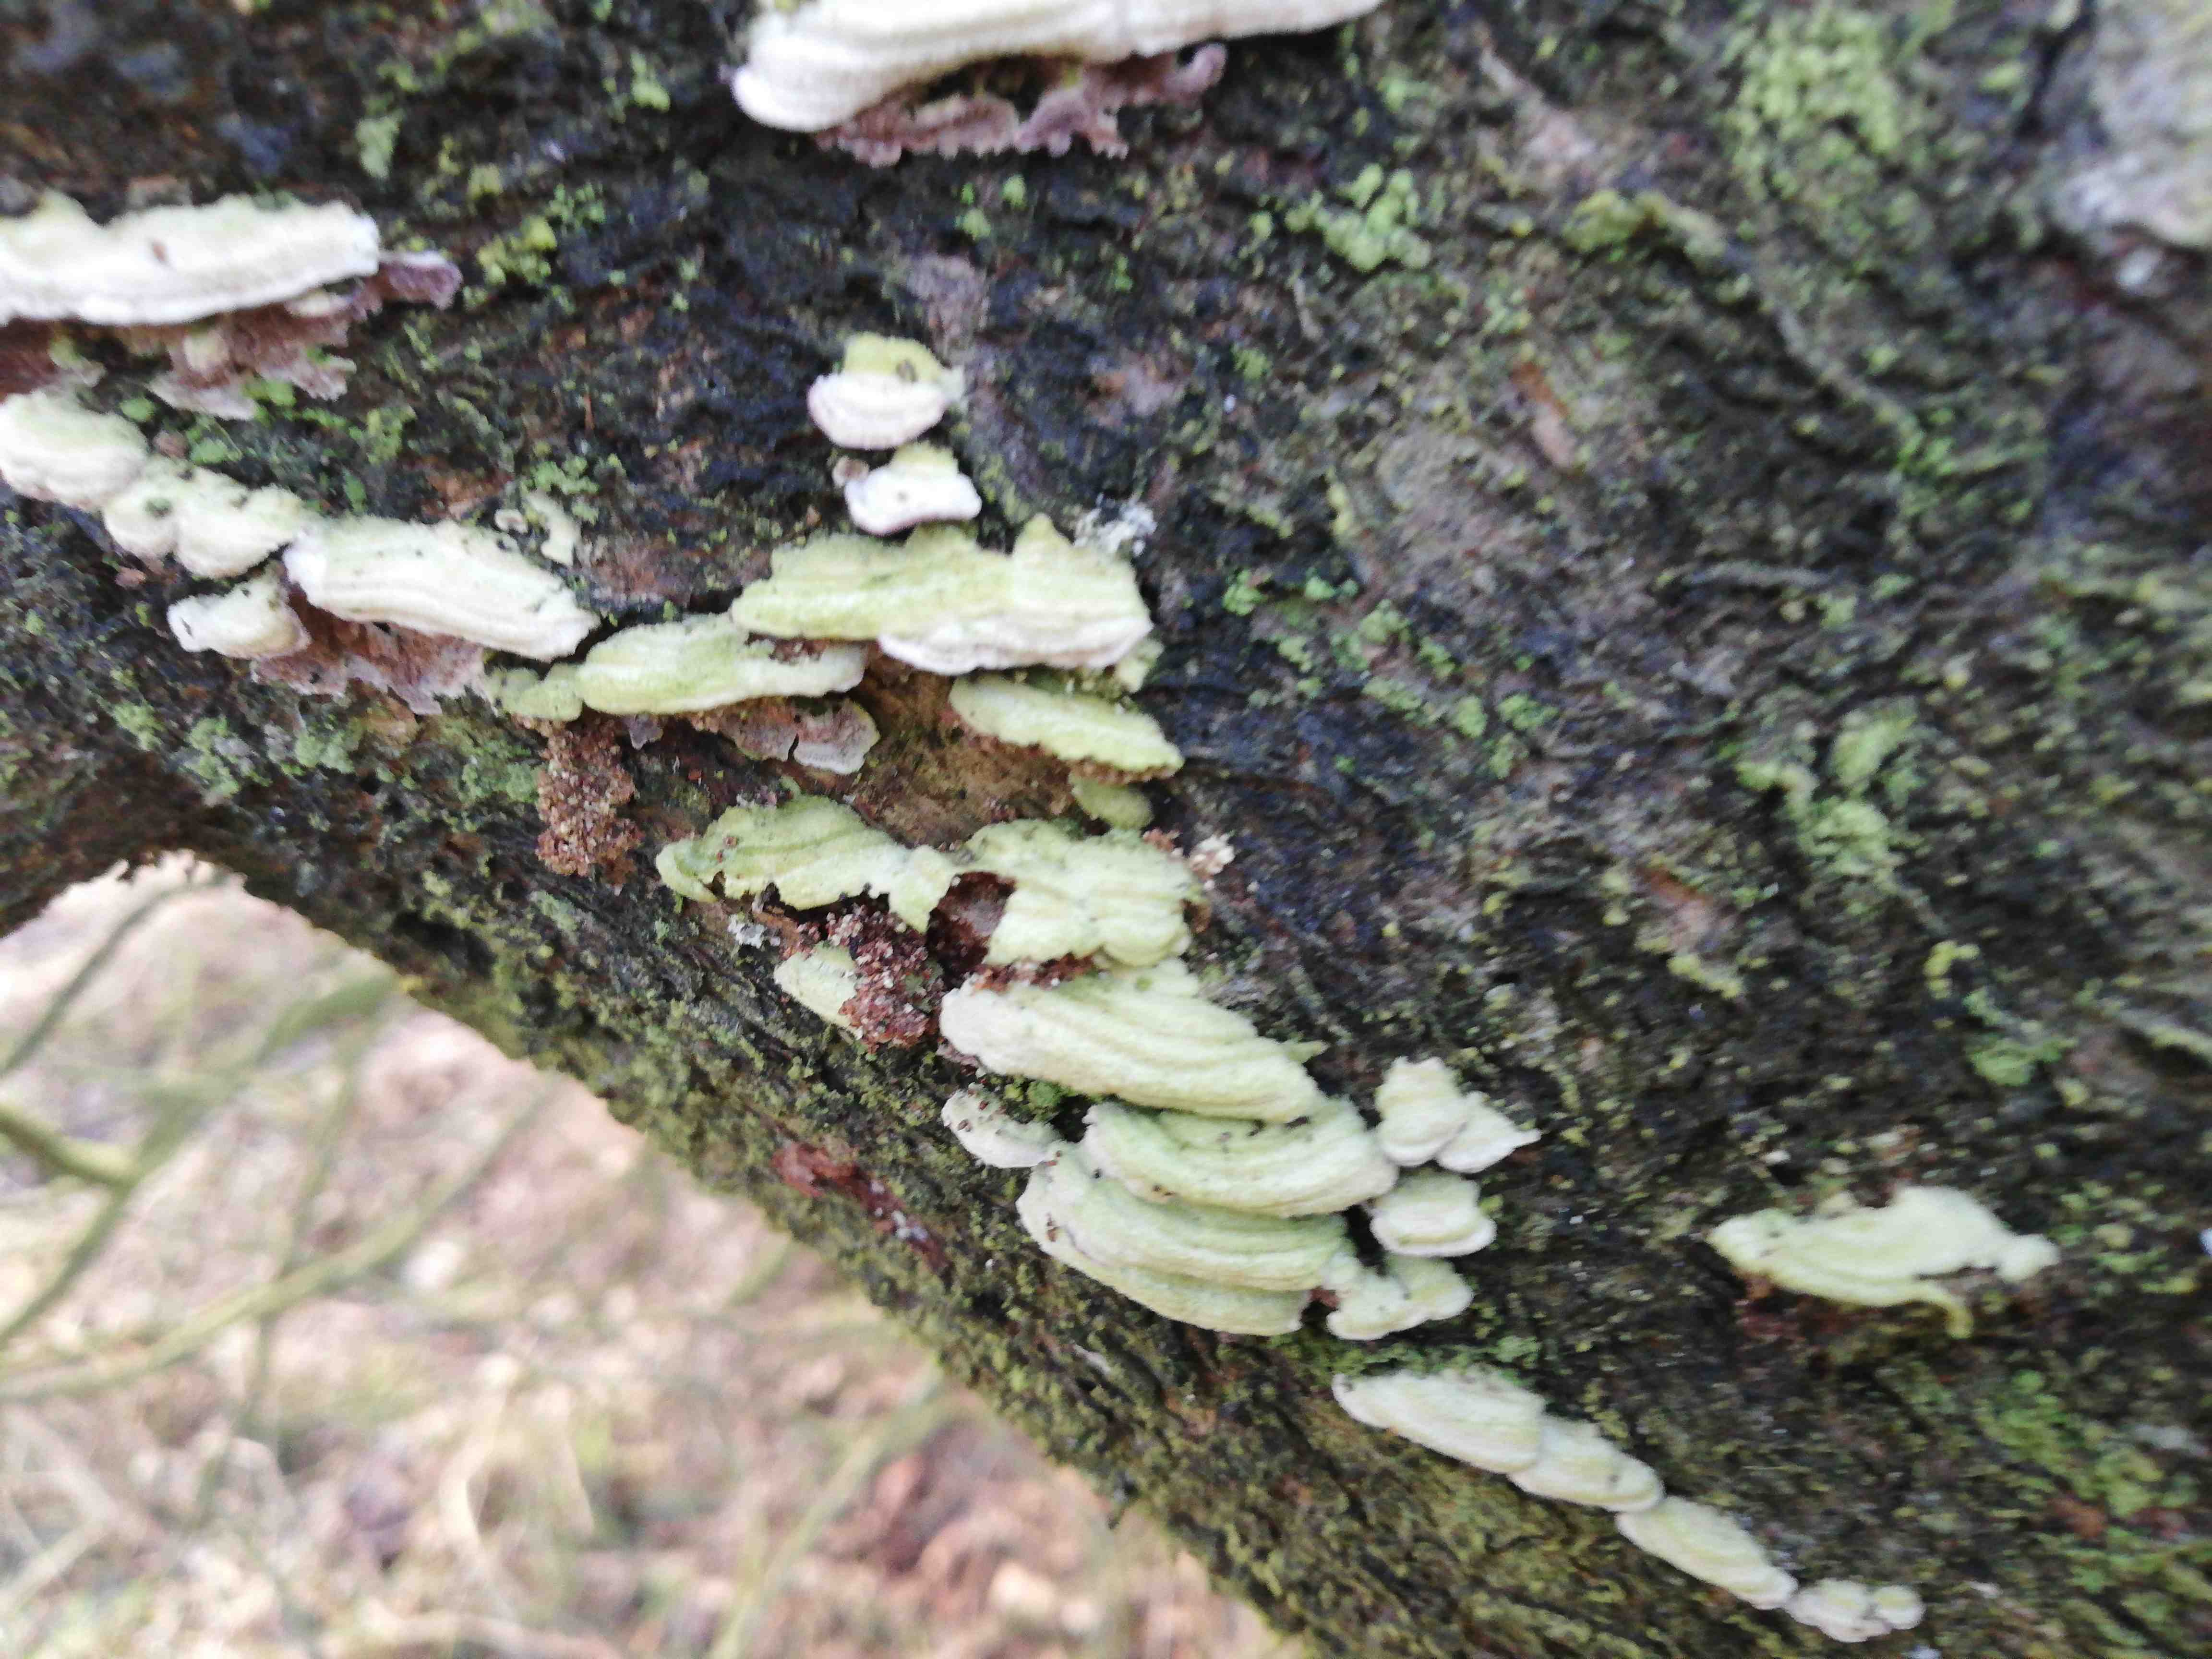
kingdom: Fungi
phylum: Basidiomycota
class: Agaricomycetes
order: Hymenochaetales
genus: Trichaptum
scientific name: Trichaptum abietinum
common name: almindelig violporesvamp
